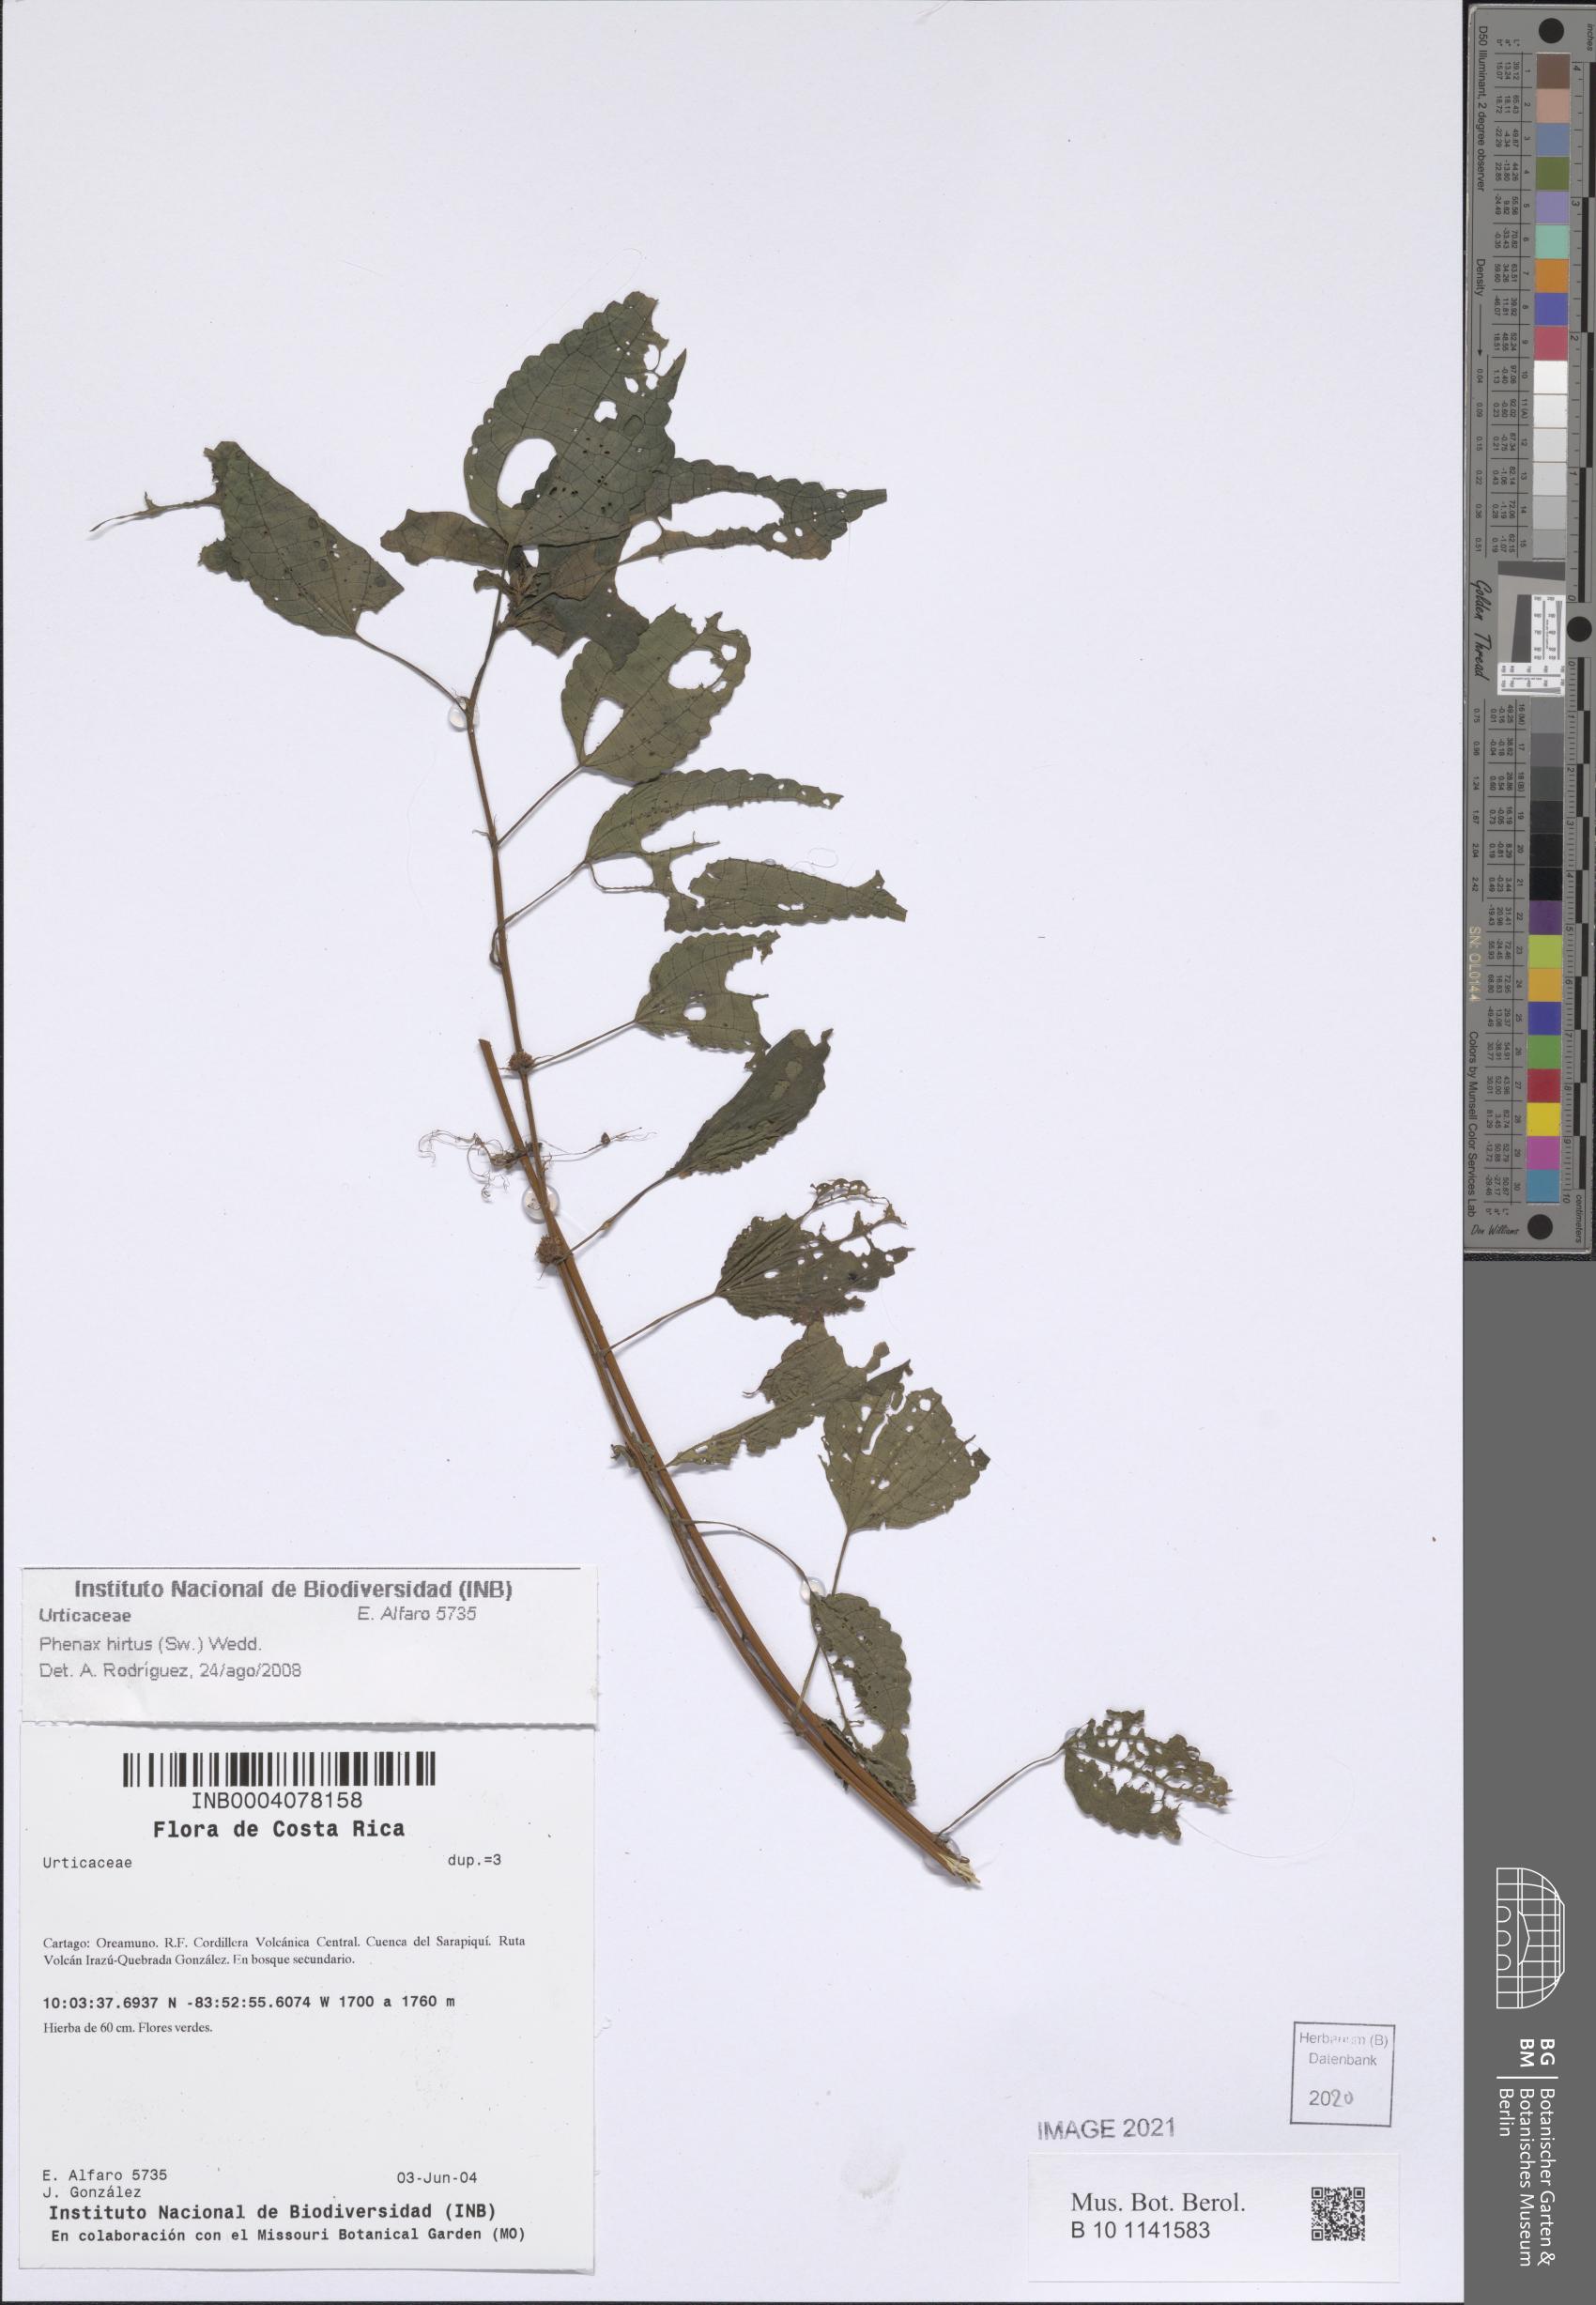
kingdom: Plantae
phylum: Tracheophyta
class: Magnoliopsida
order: Rosales
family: Urticaceae
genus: Phenax
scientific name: Phenax hirtus
